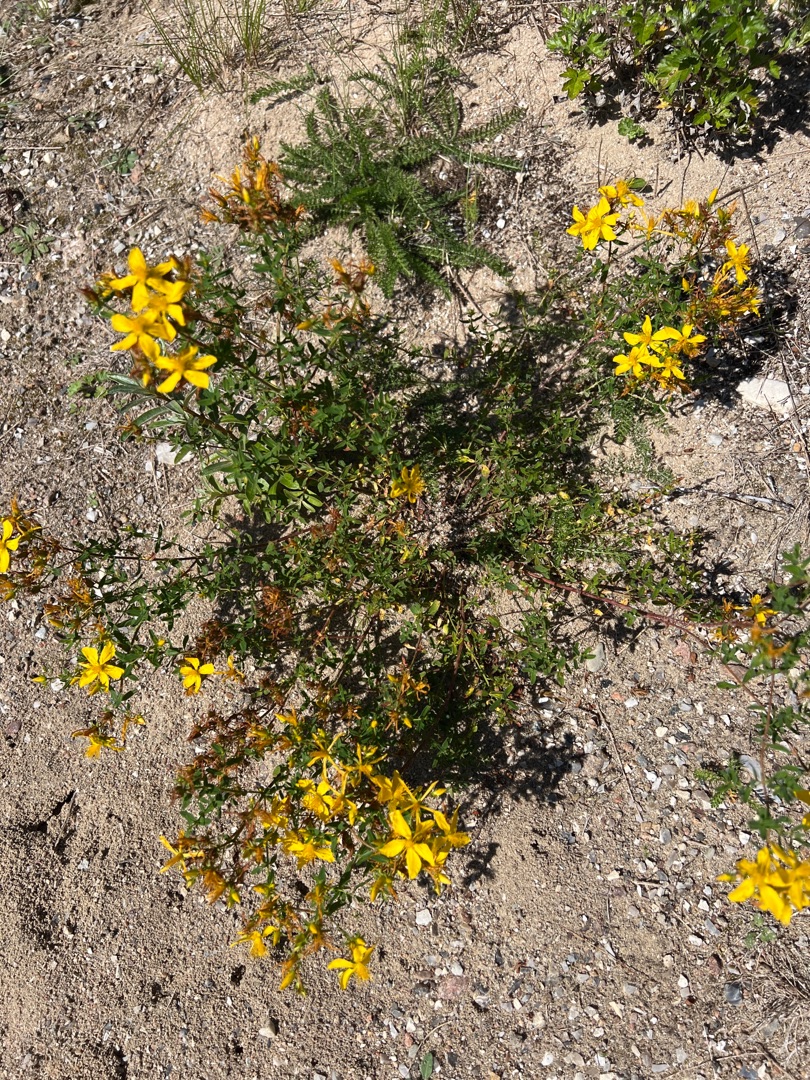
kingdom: Plantae
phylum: Tracheophyta
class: Magnoliopsida
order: Malpighiales
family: Hypericaceae
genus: Hypericum
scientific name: Hypericum perforatum
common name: Prikbladet perikon
